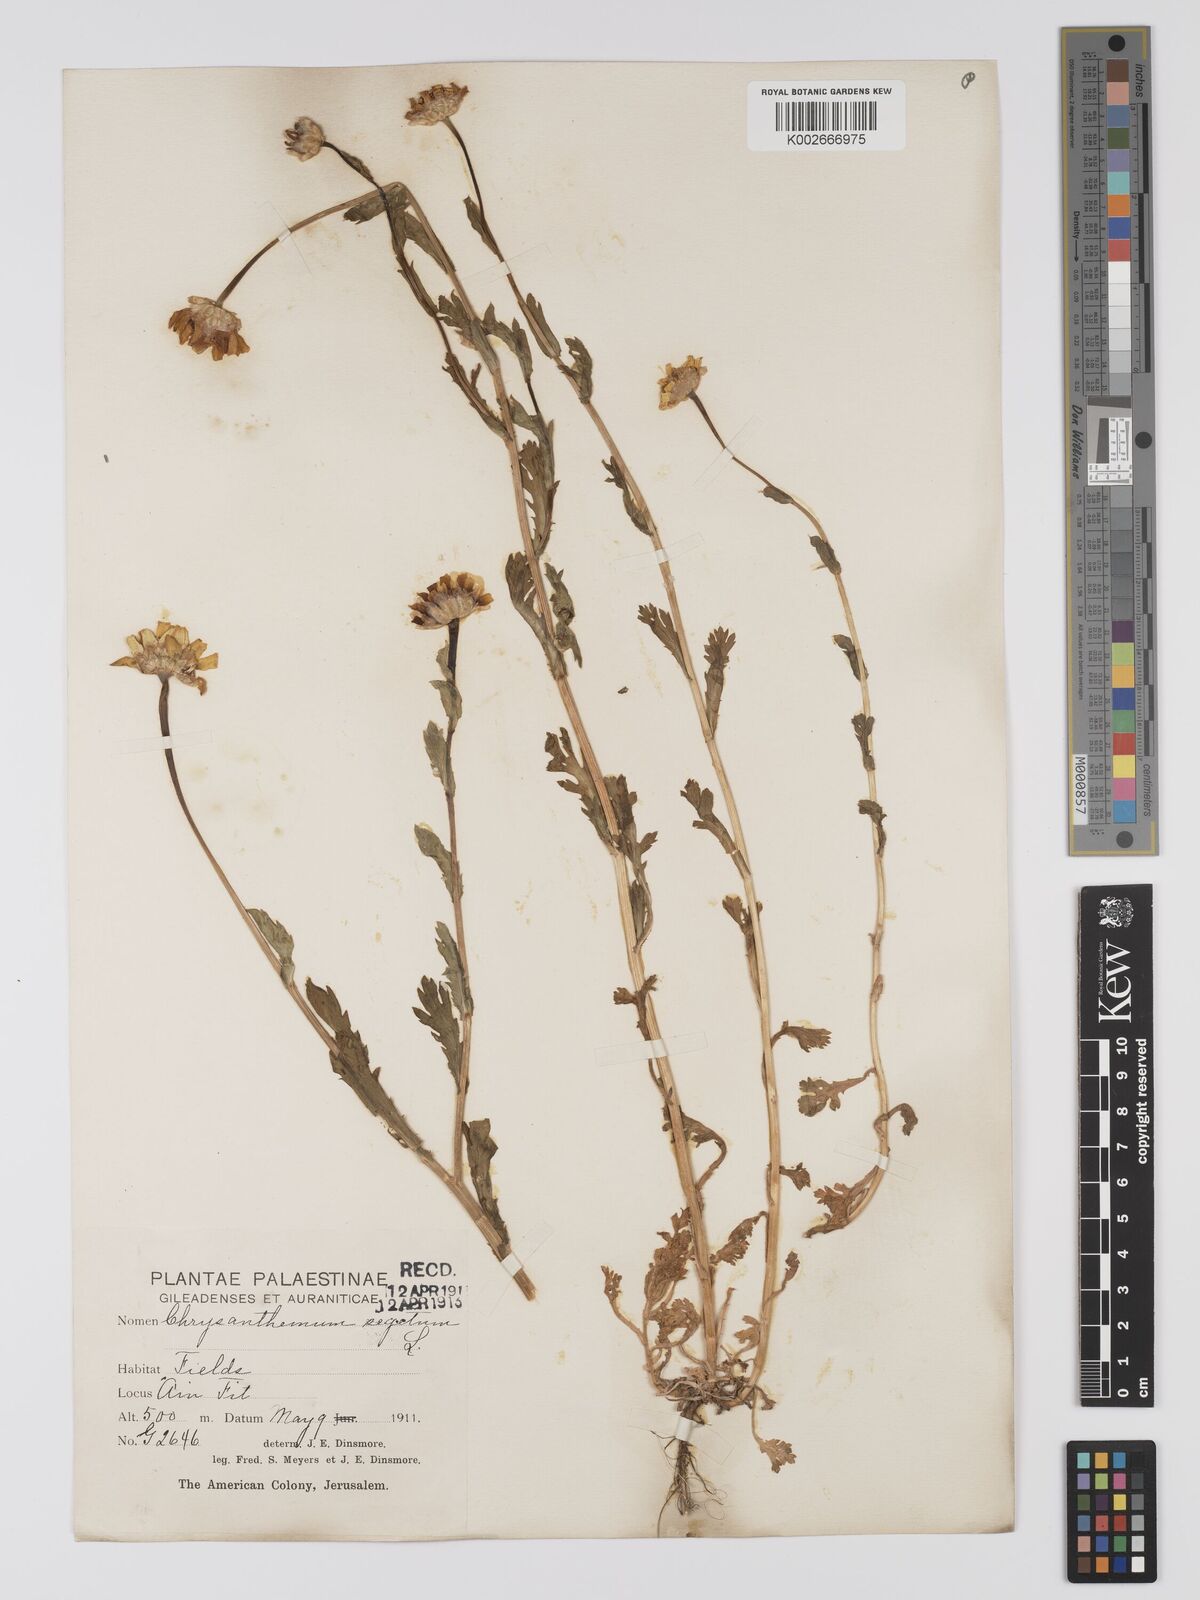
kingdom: Plantae
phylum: Tracheophyta
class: Magnoliopsida
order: Asterales
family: Asteraceae
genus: Glebionis
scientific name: Glebionis segetum
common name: Corndaisy
